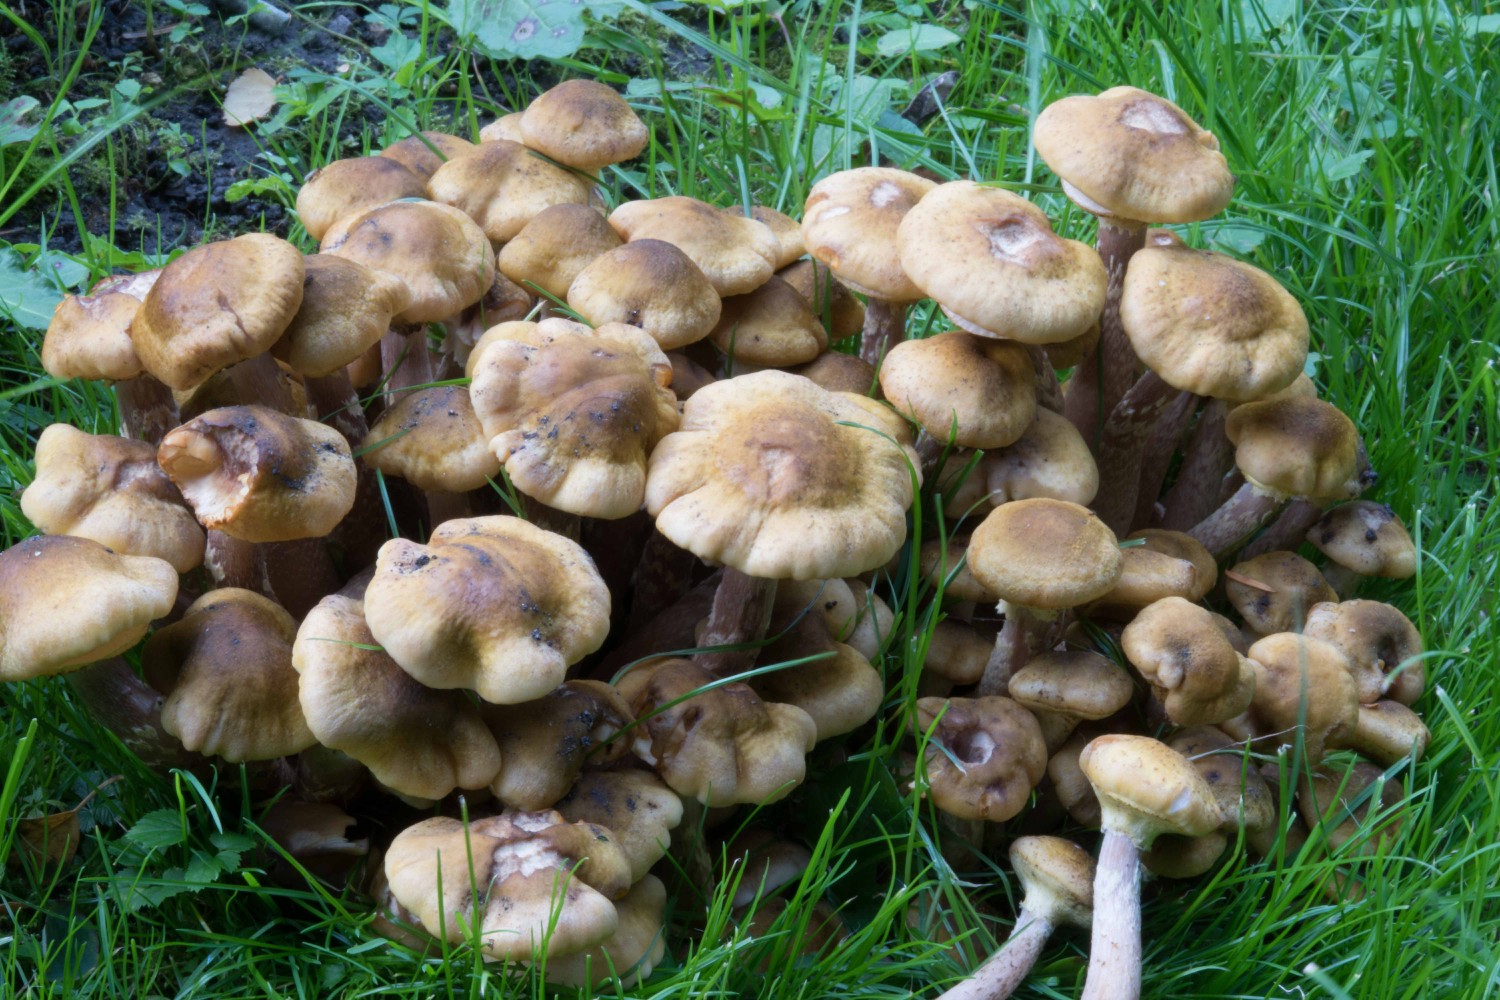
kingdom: Fungi
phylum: Basidiomycota
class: Agaricomycetes
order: Agaricales
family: Physalacriaceae
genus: Armillaria
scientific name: Armillaria mellea
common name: ægte honningsvamp
